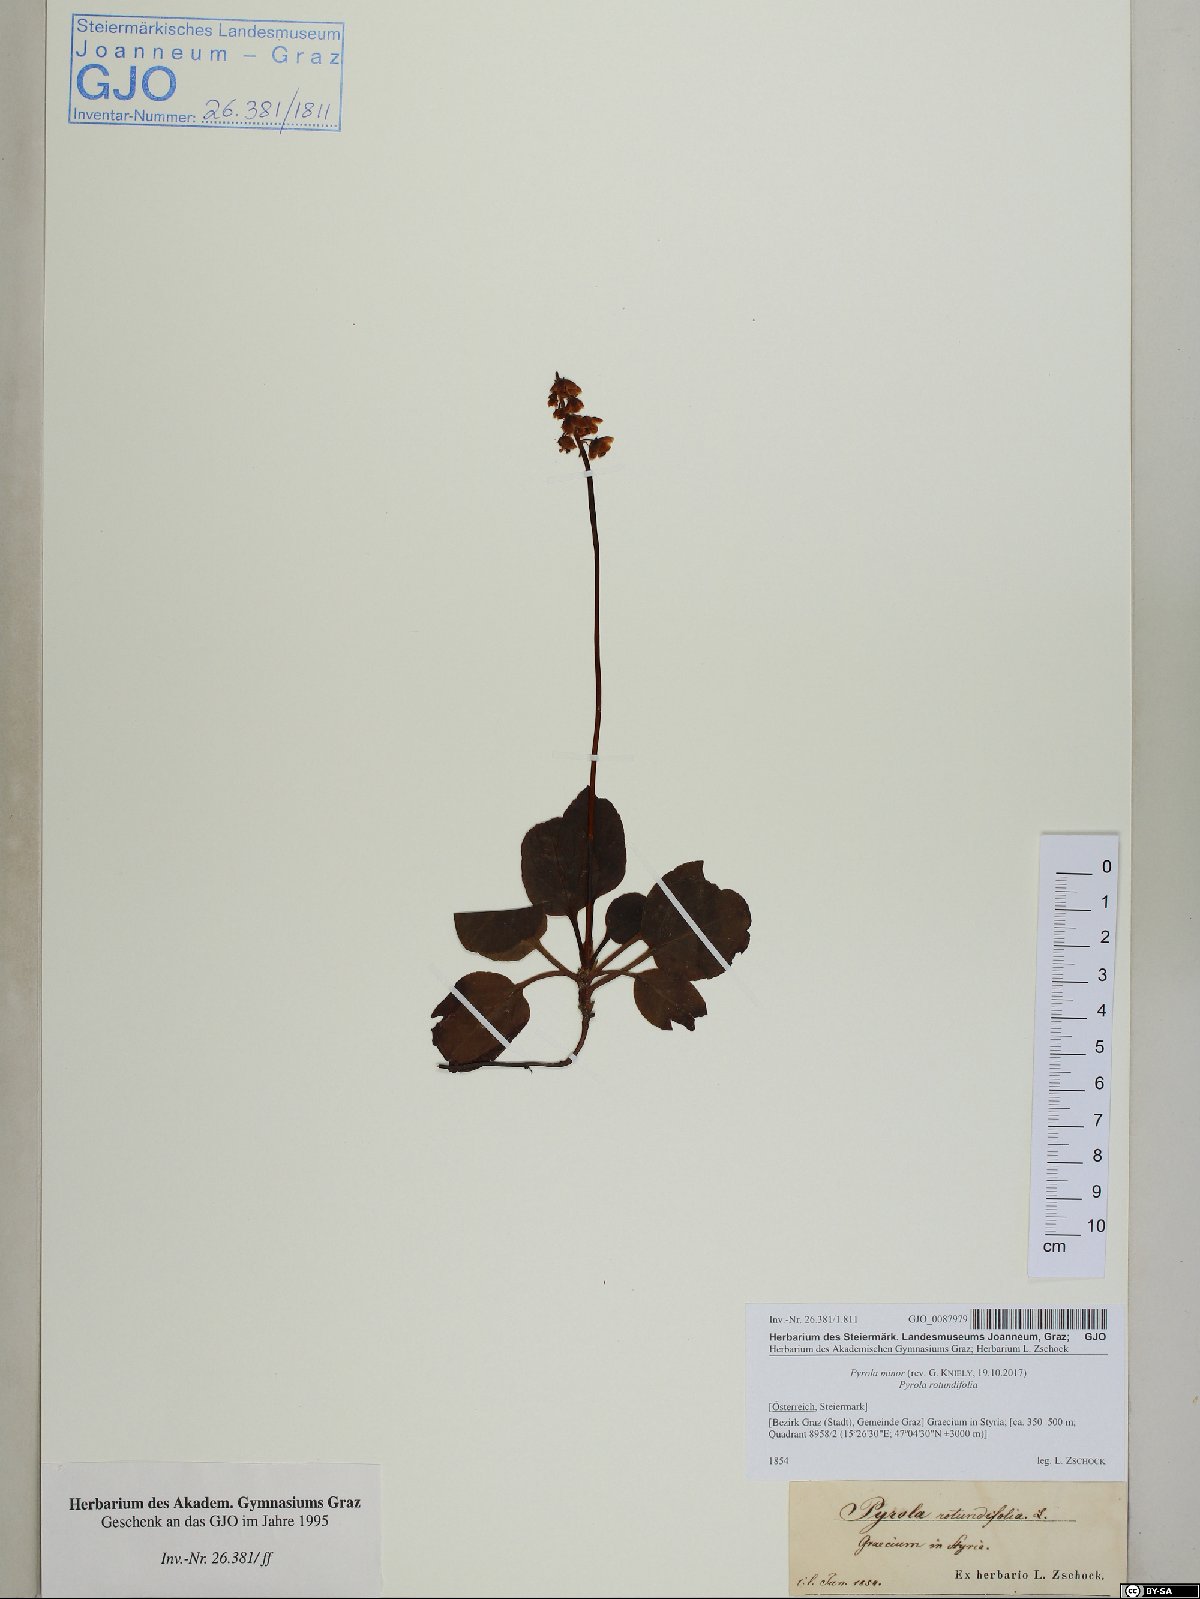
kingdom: Plantae
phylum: Tracheophyta
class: Magnoliopsida
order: Ericales
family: Ericaceae
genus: Pyrola
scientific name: Pyrola minor
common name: Common wintergreen
